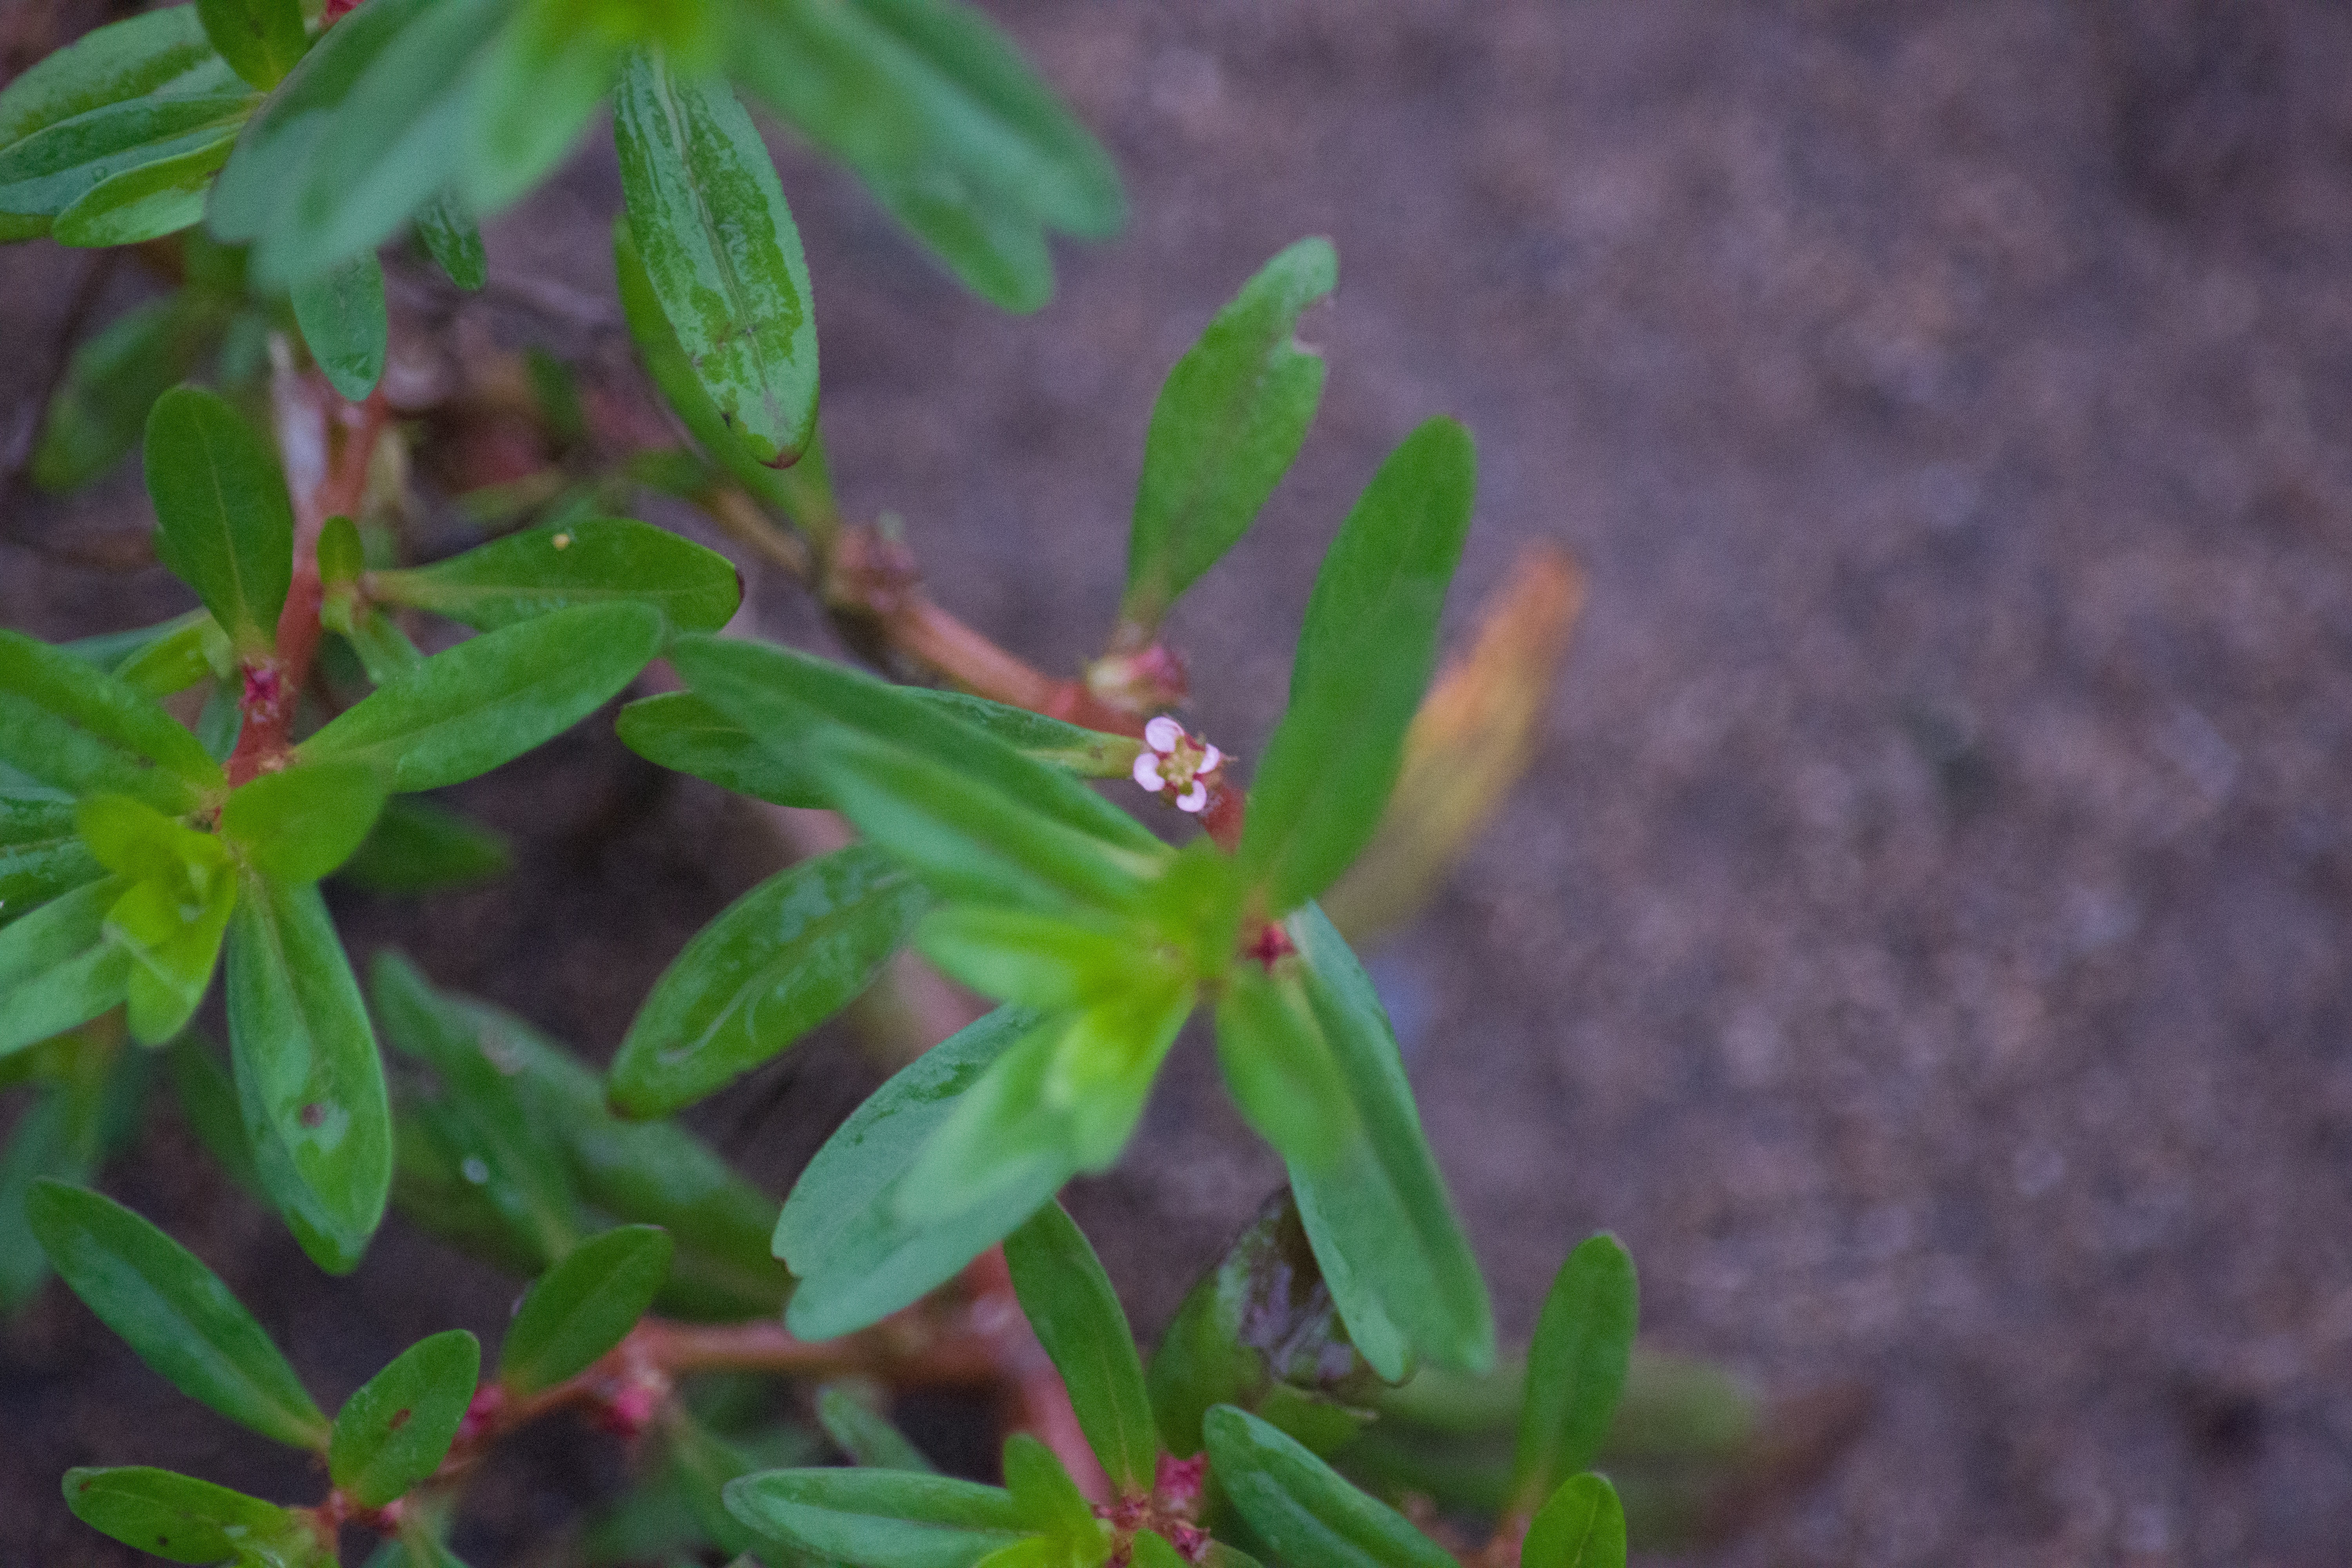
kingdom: Plantae
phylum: Tracheophyta
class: Magnoliopsida
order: Myrtales
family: Lythraceae
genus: Rotala
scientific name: Rotala ramosior
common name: Lowland rotala
